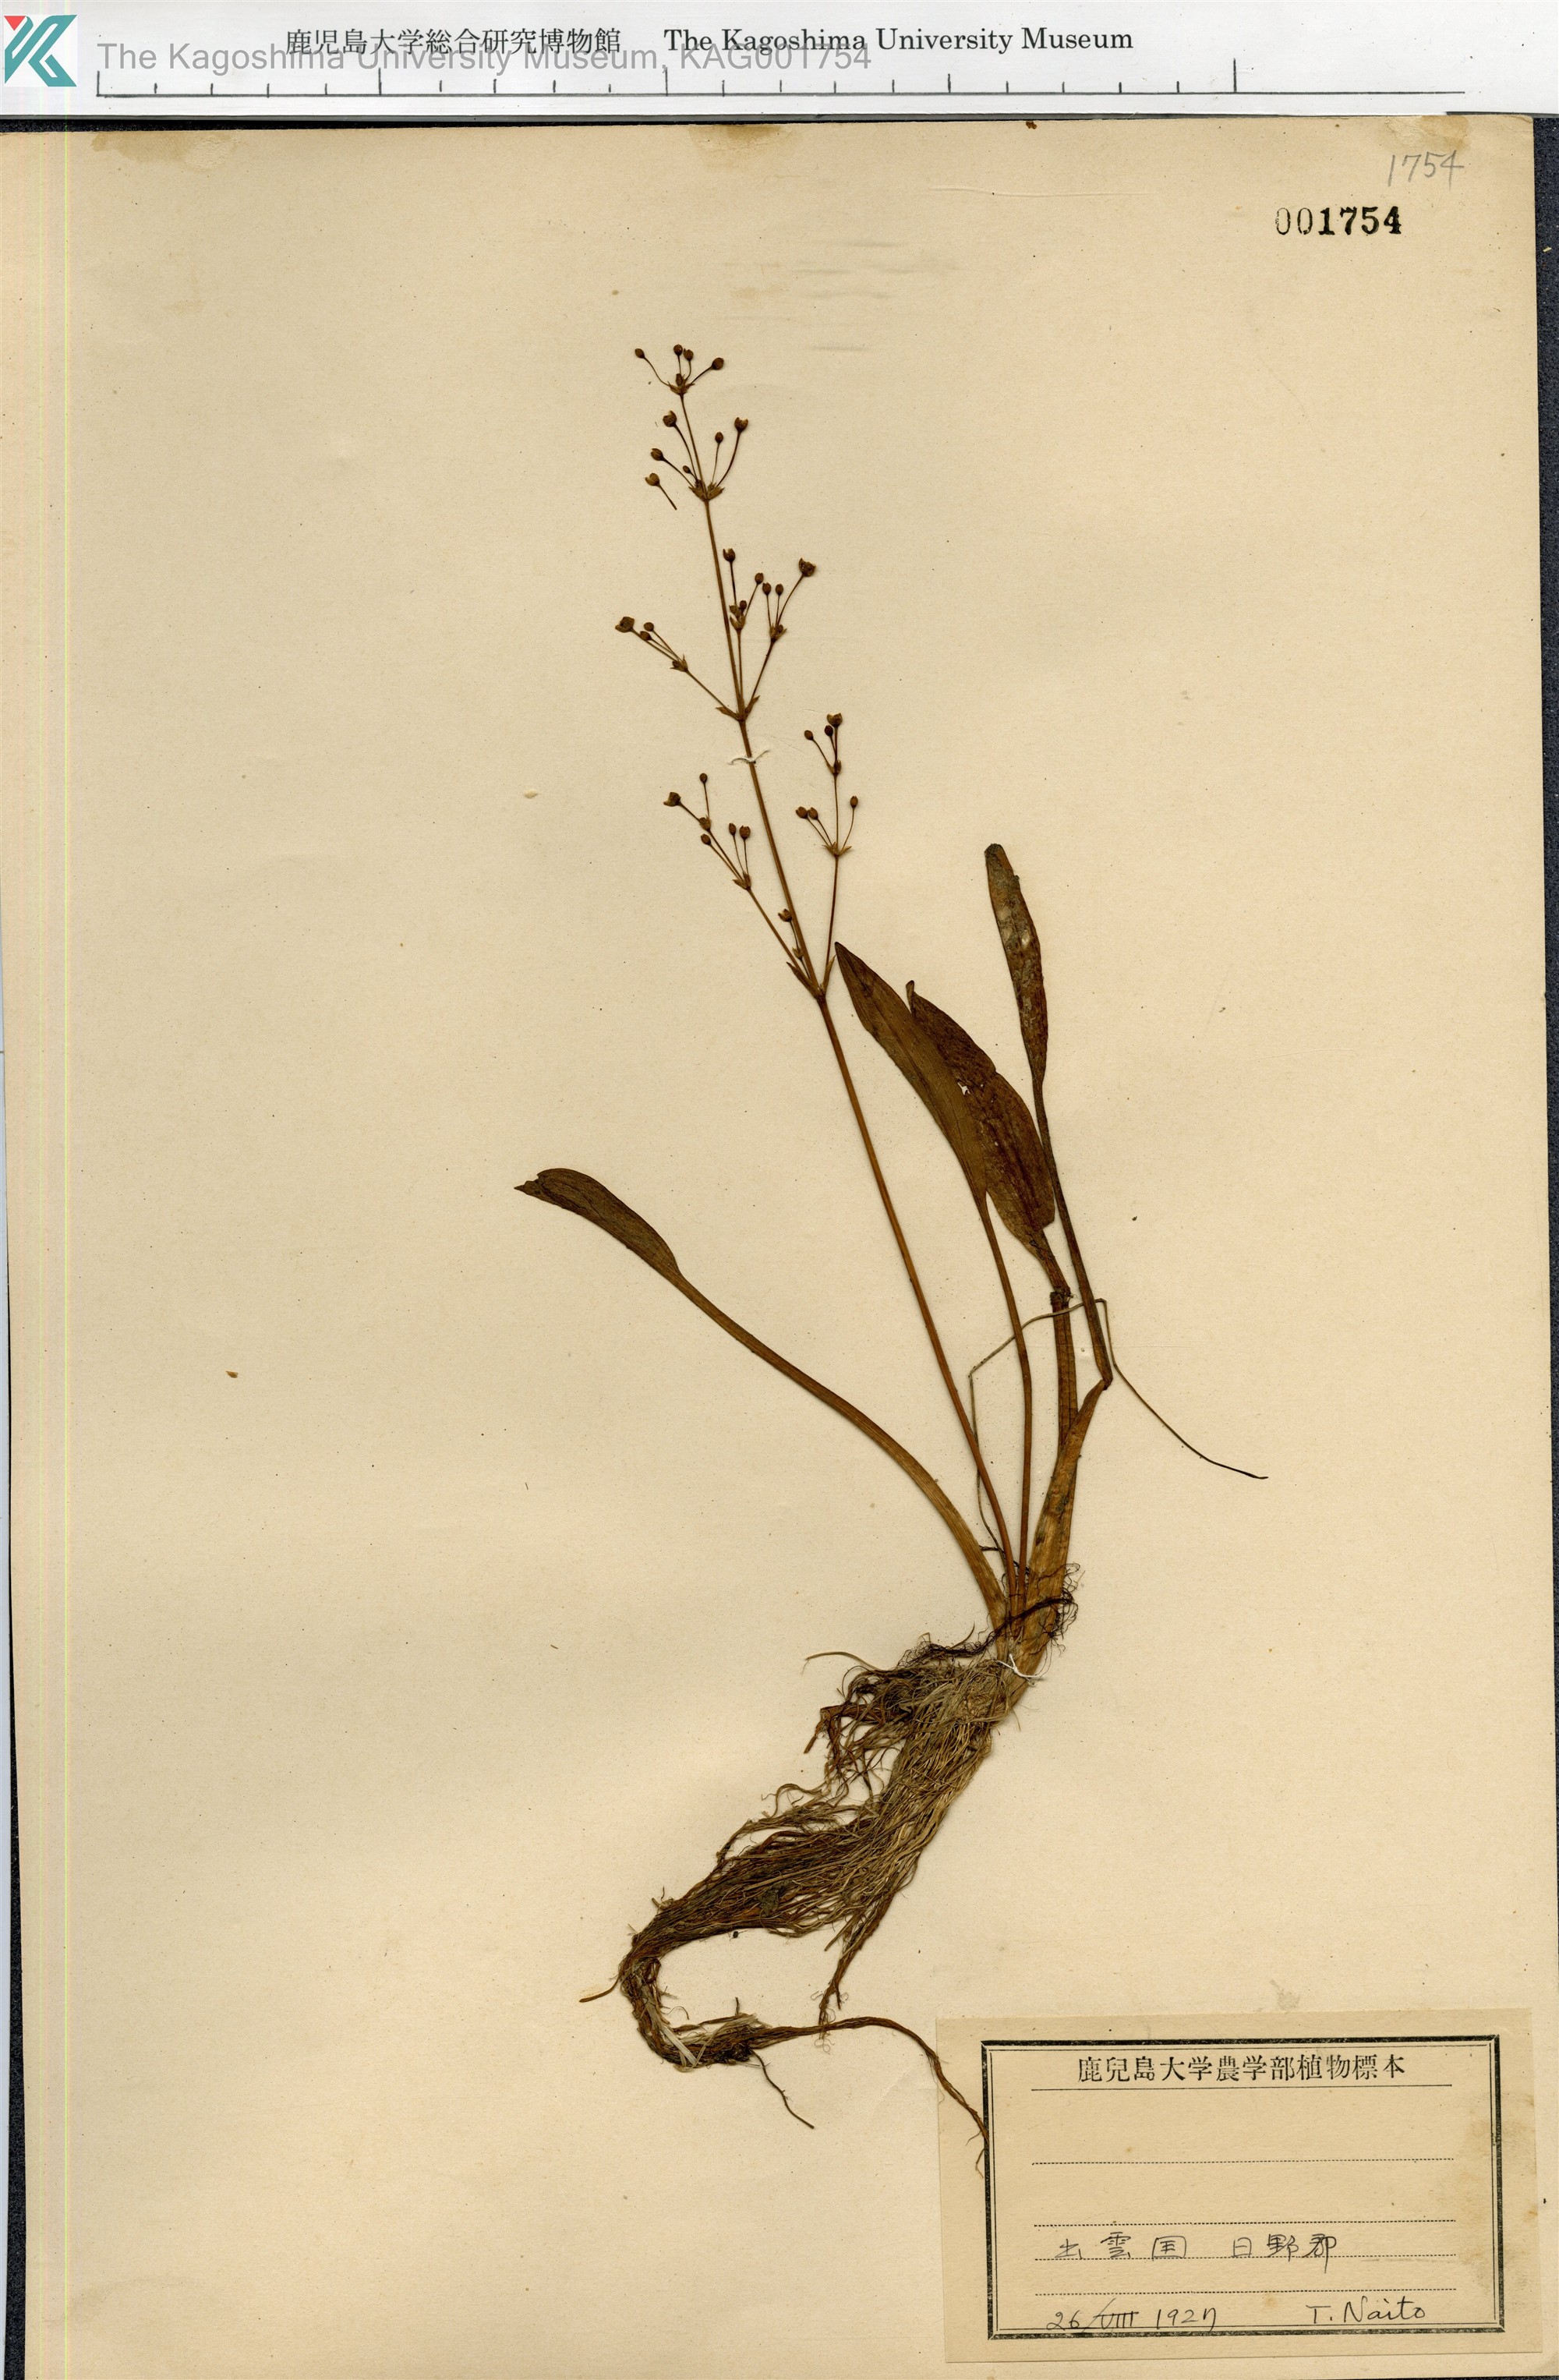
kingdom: Plantae
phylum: Tracheophyta
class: Liliopsida
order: Alismatales
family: Alismataceae
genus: Alisma
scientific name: Alisma canaliculatum
